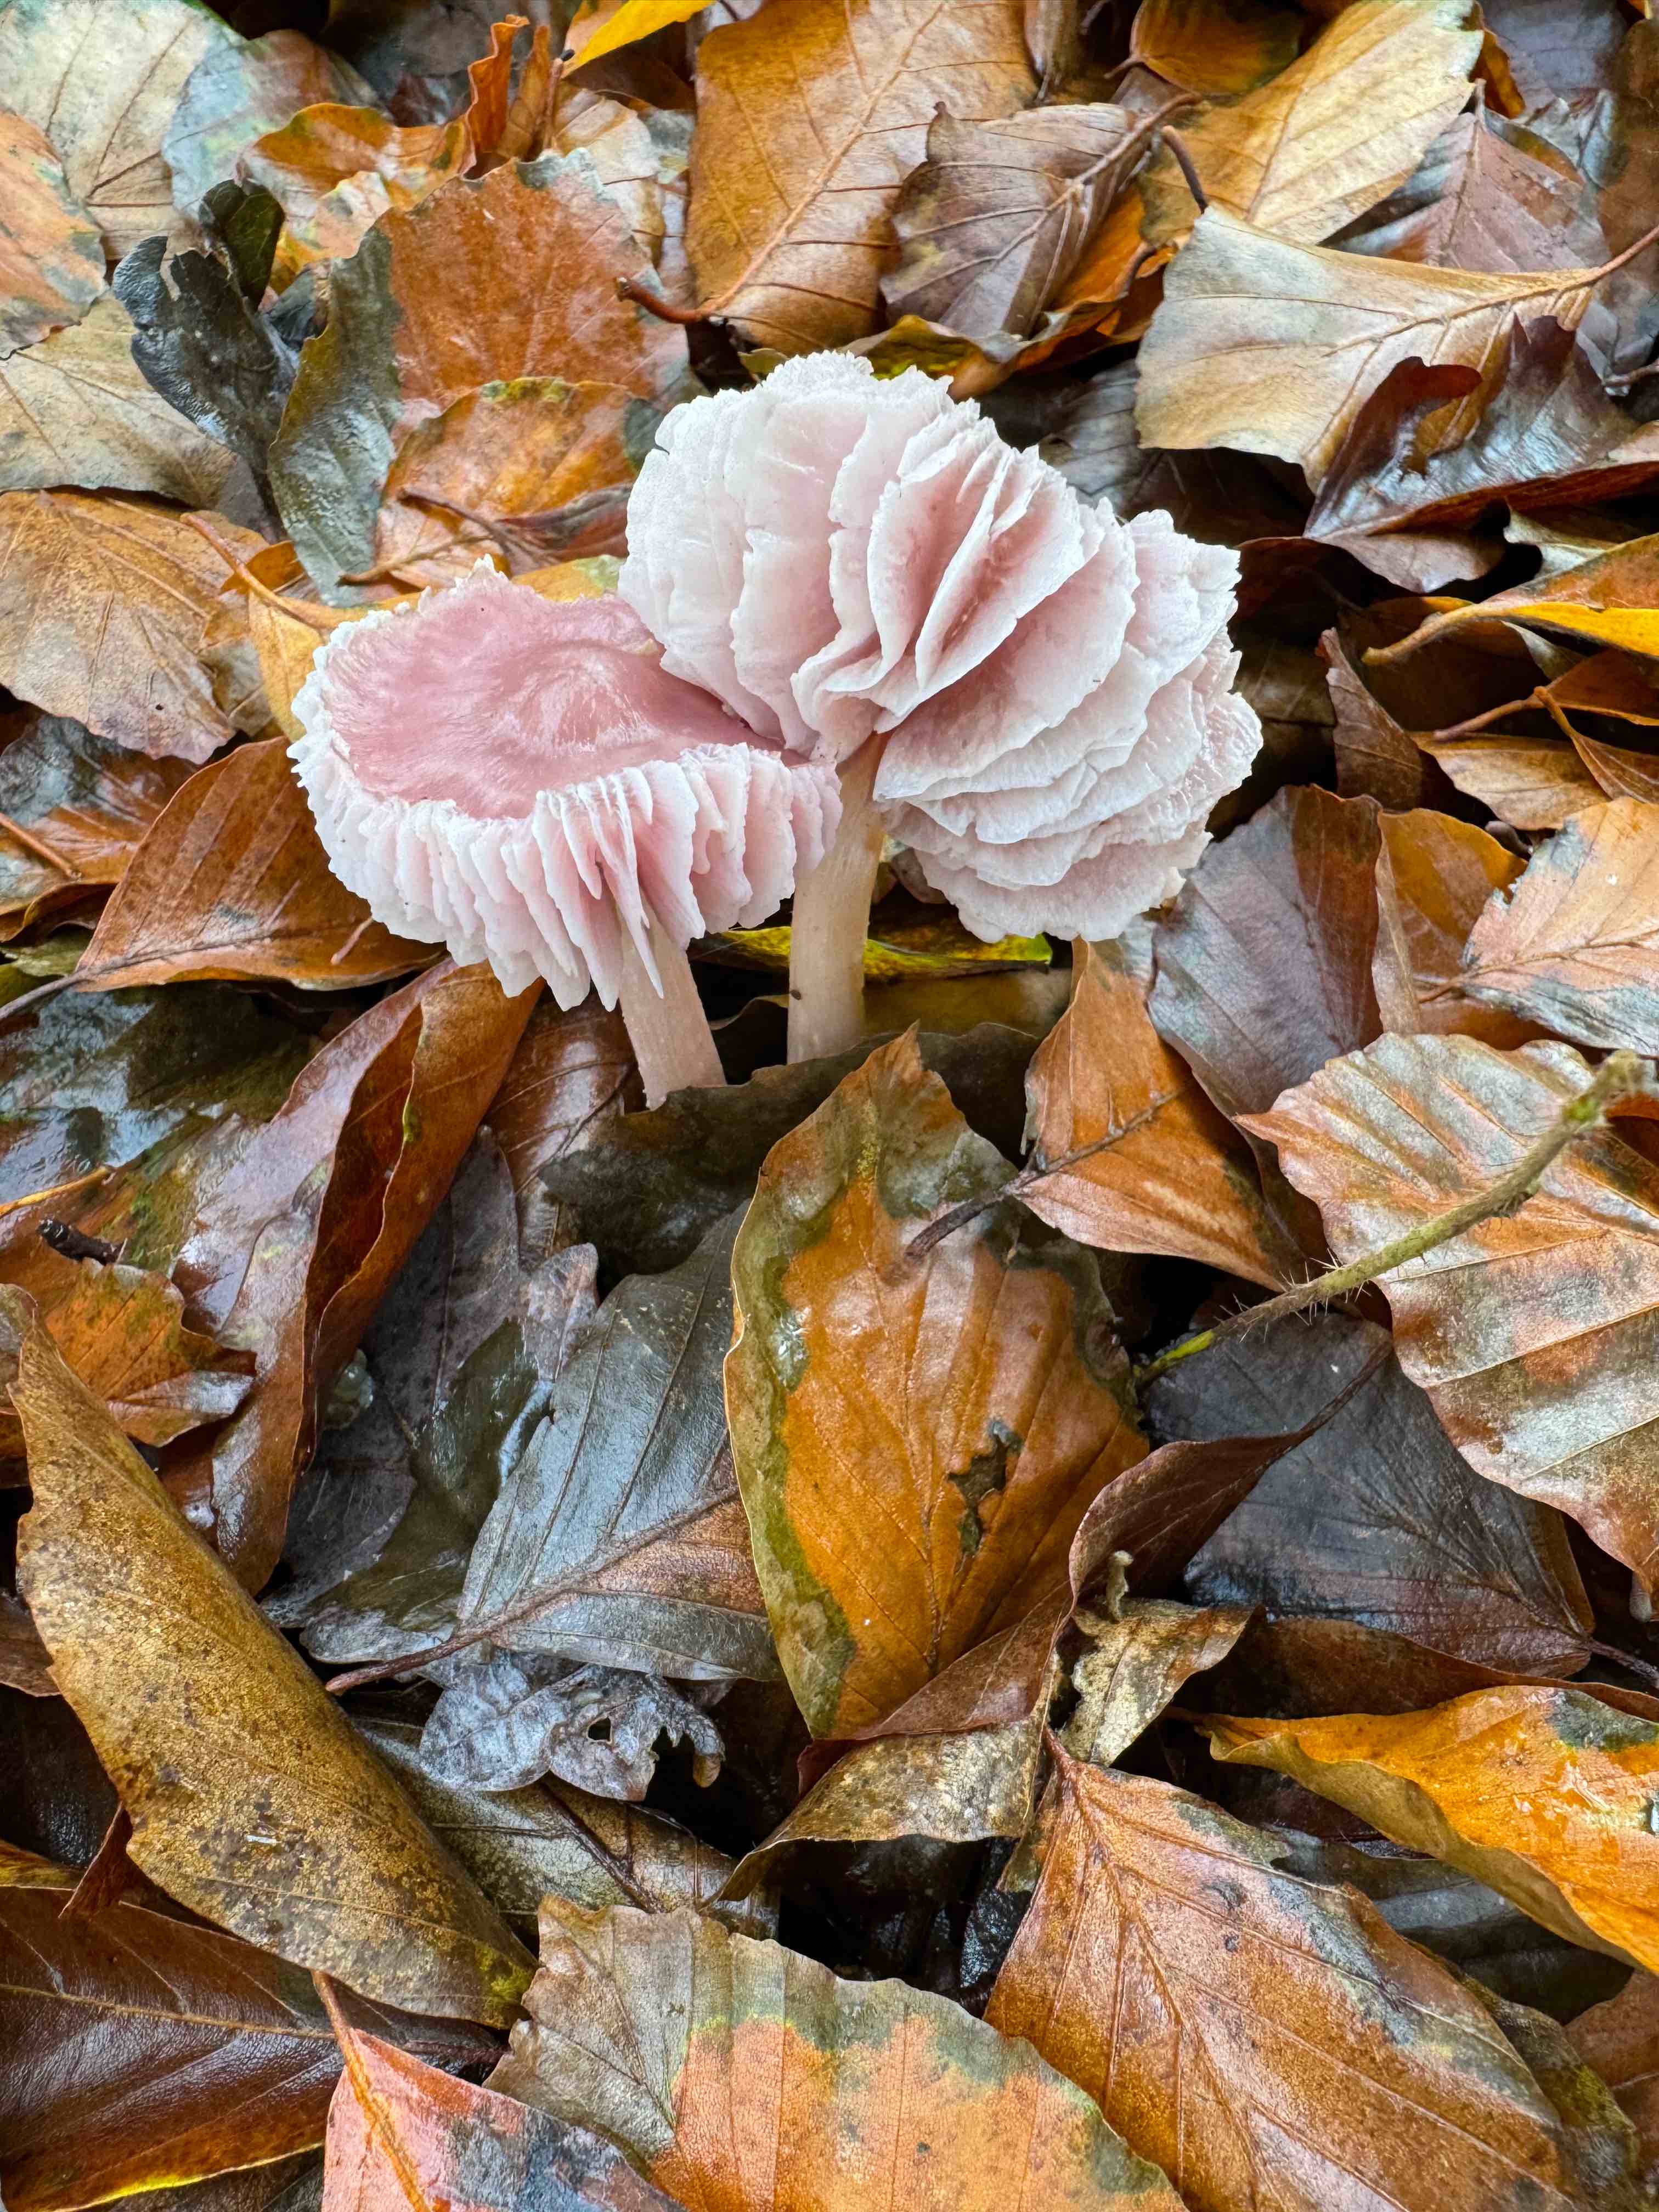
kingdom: Fungi
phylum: Basidiomycota
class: Agaricomycetes
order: Agaricales
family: Mycenaceae
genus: Mycena
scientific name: Mycena rosea
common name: rosa huesvamp
